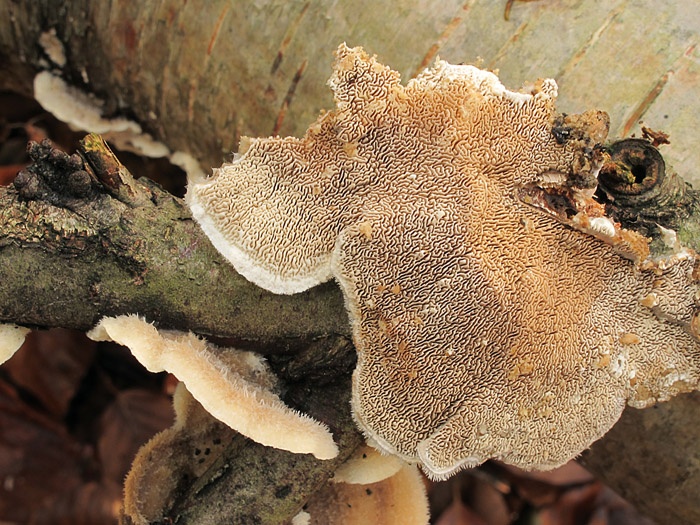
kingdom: Fungi
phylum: Basidiomycota
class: Agaricomycetes
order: Polyporales
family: Cerrenaceae
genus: Cerrena
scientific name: Cerrena unicolor
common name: ensfarvet læderporesvamp
